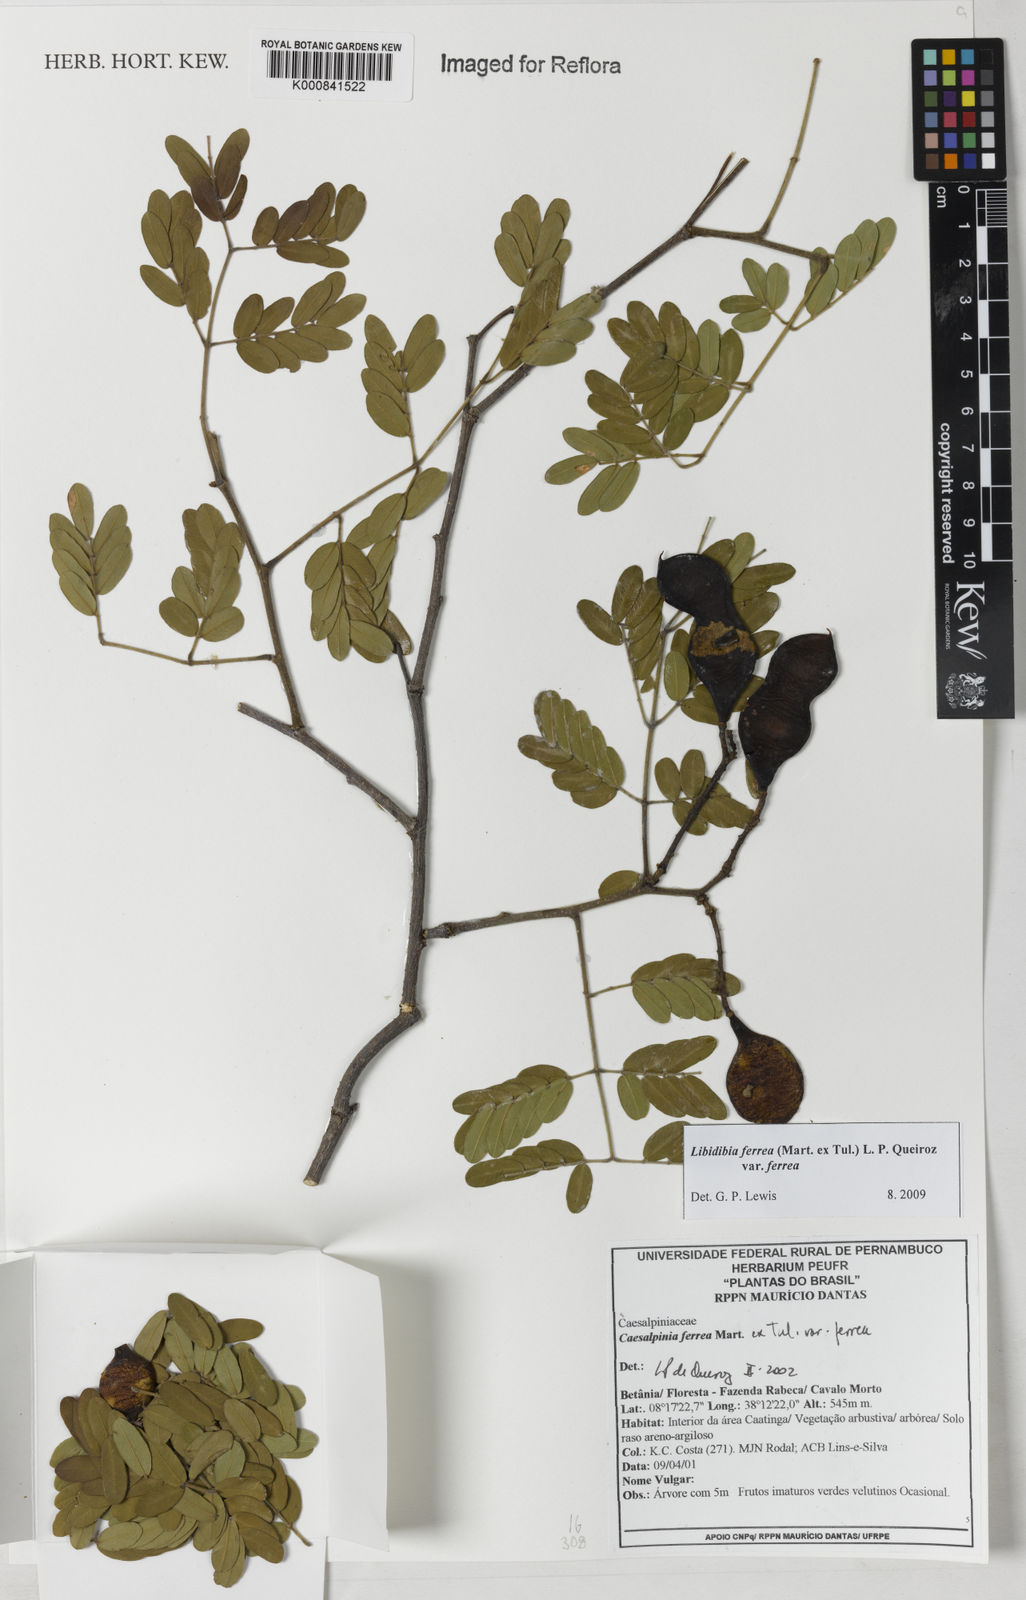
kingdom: Plantae
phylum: Tracheophyta
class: Magnoliopsida
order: Fabales
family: Fabaceae
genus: Libidibia
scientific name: Libidibia ferrea
